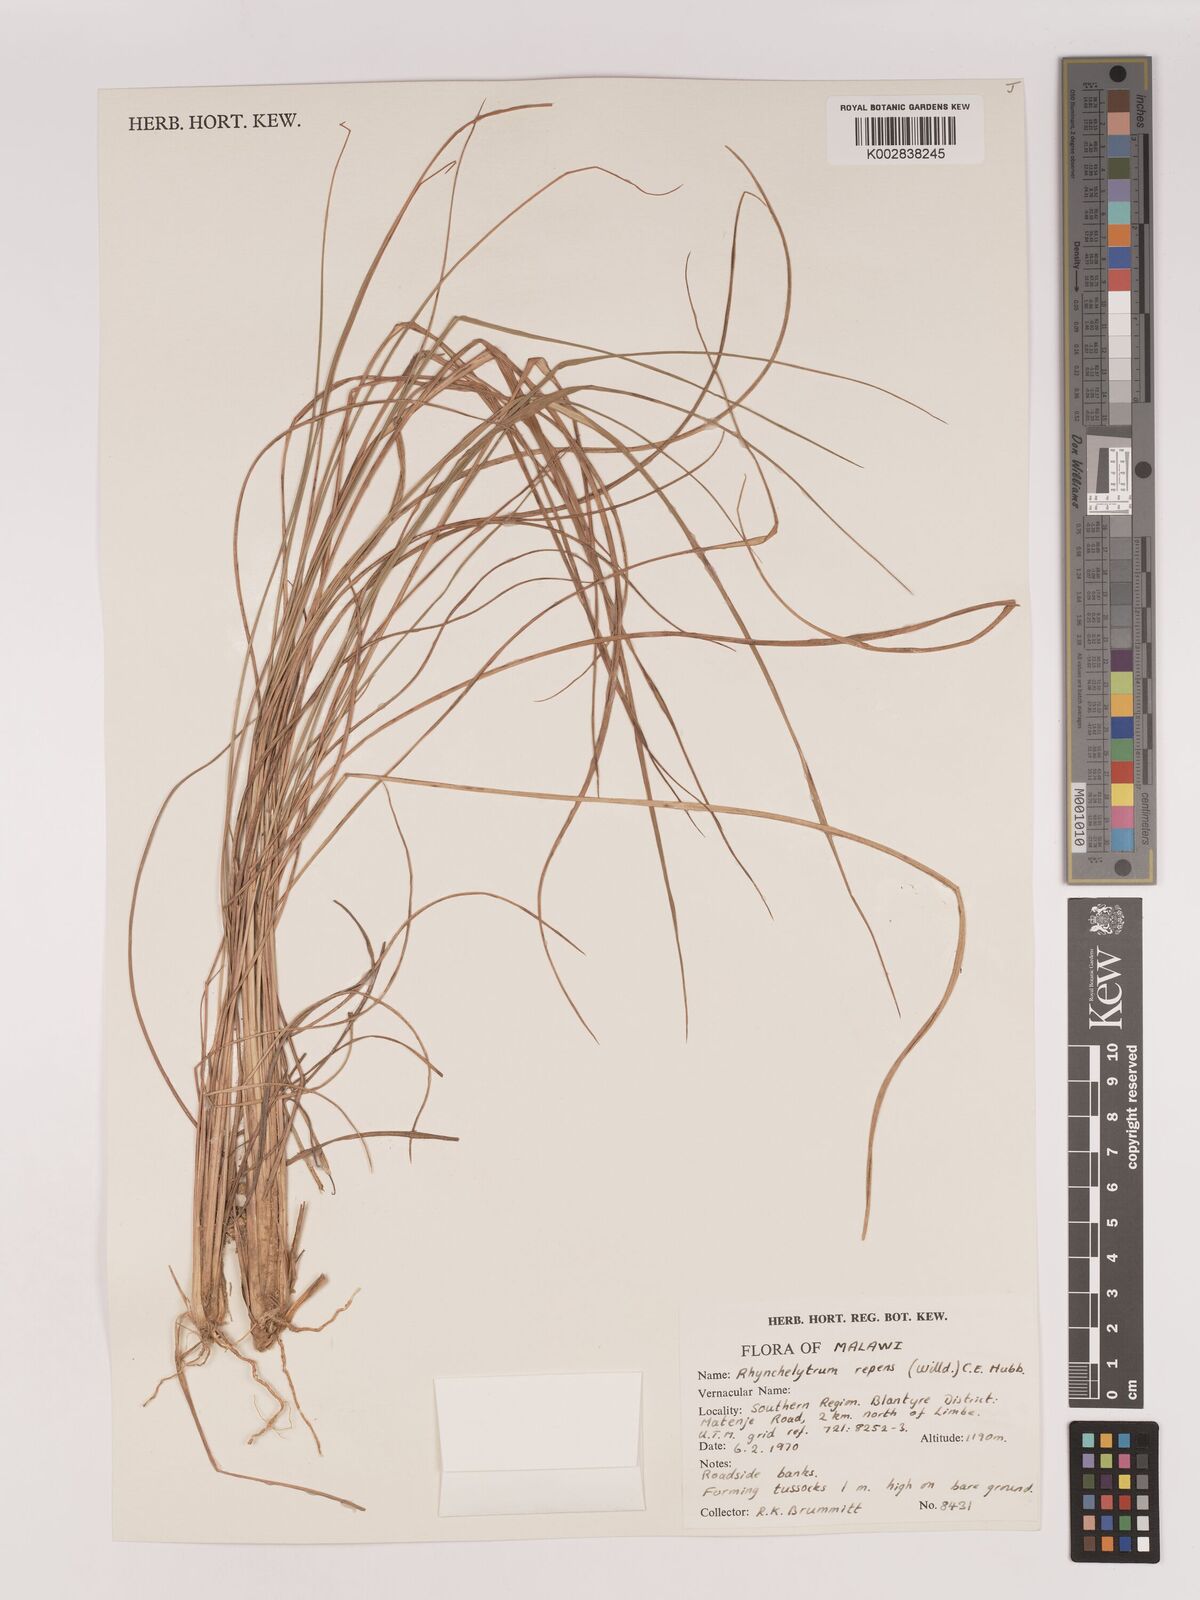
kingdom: Plantae
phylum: Tracheophyta
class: Liliopsida
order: Poales
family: Poaceae
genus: Melinis
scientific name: Melinis repens
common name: Rose natal grass
